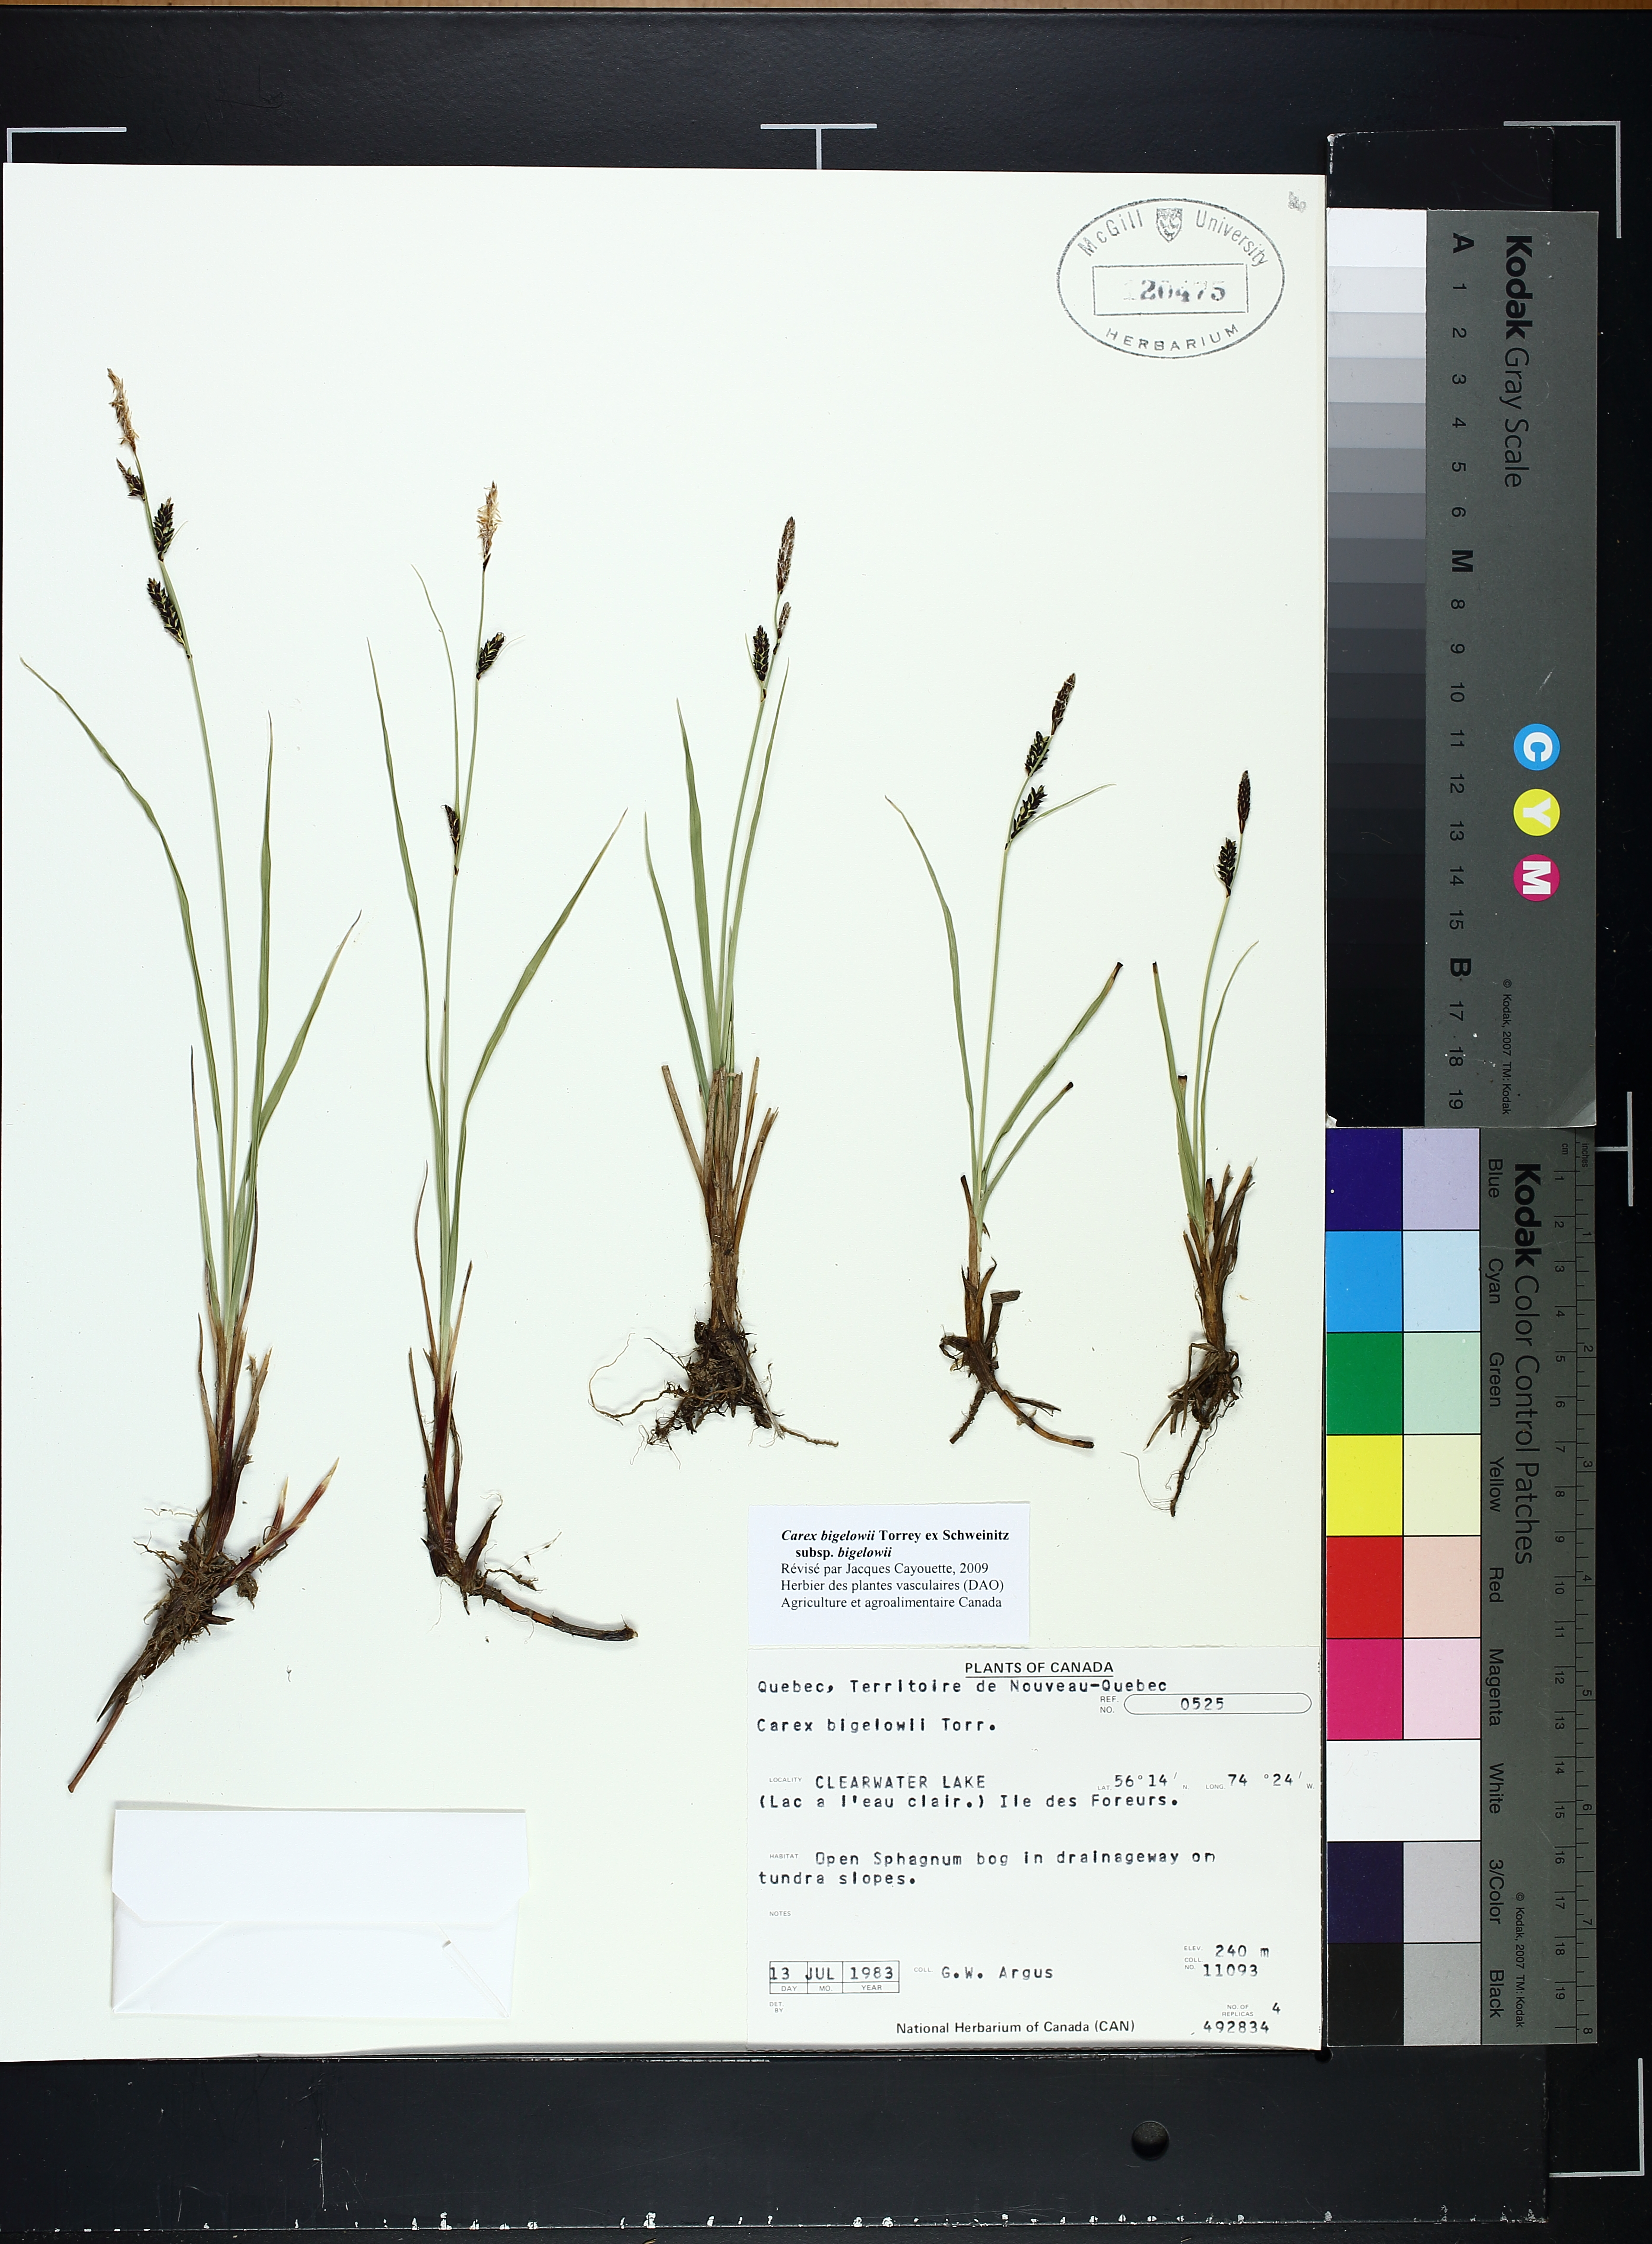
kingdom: Plantae
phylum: Tracheophyta
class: Liliopsida
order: Poales
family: Cyperaceae
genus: Carex
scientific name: Carex bigelowii
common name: Stiff sedge
